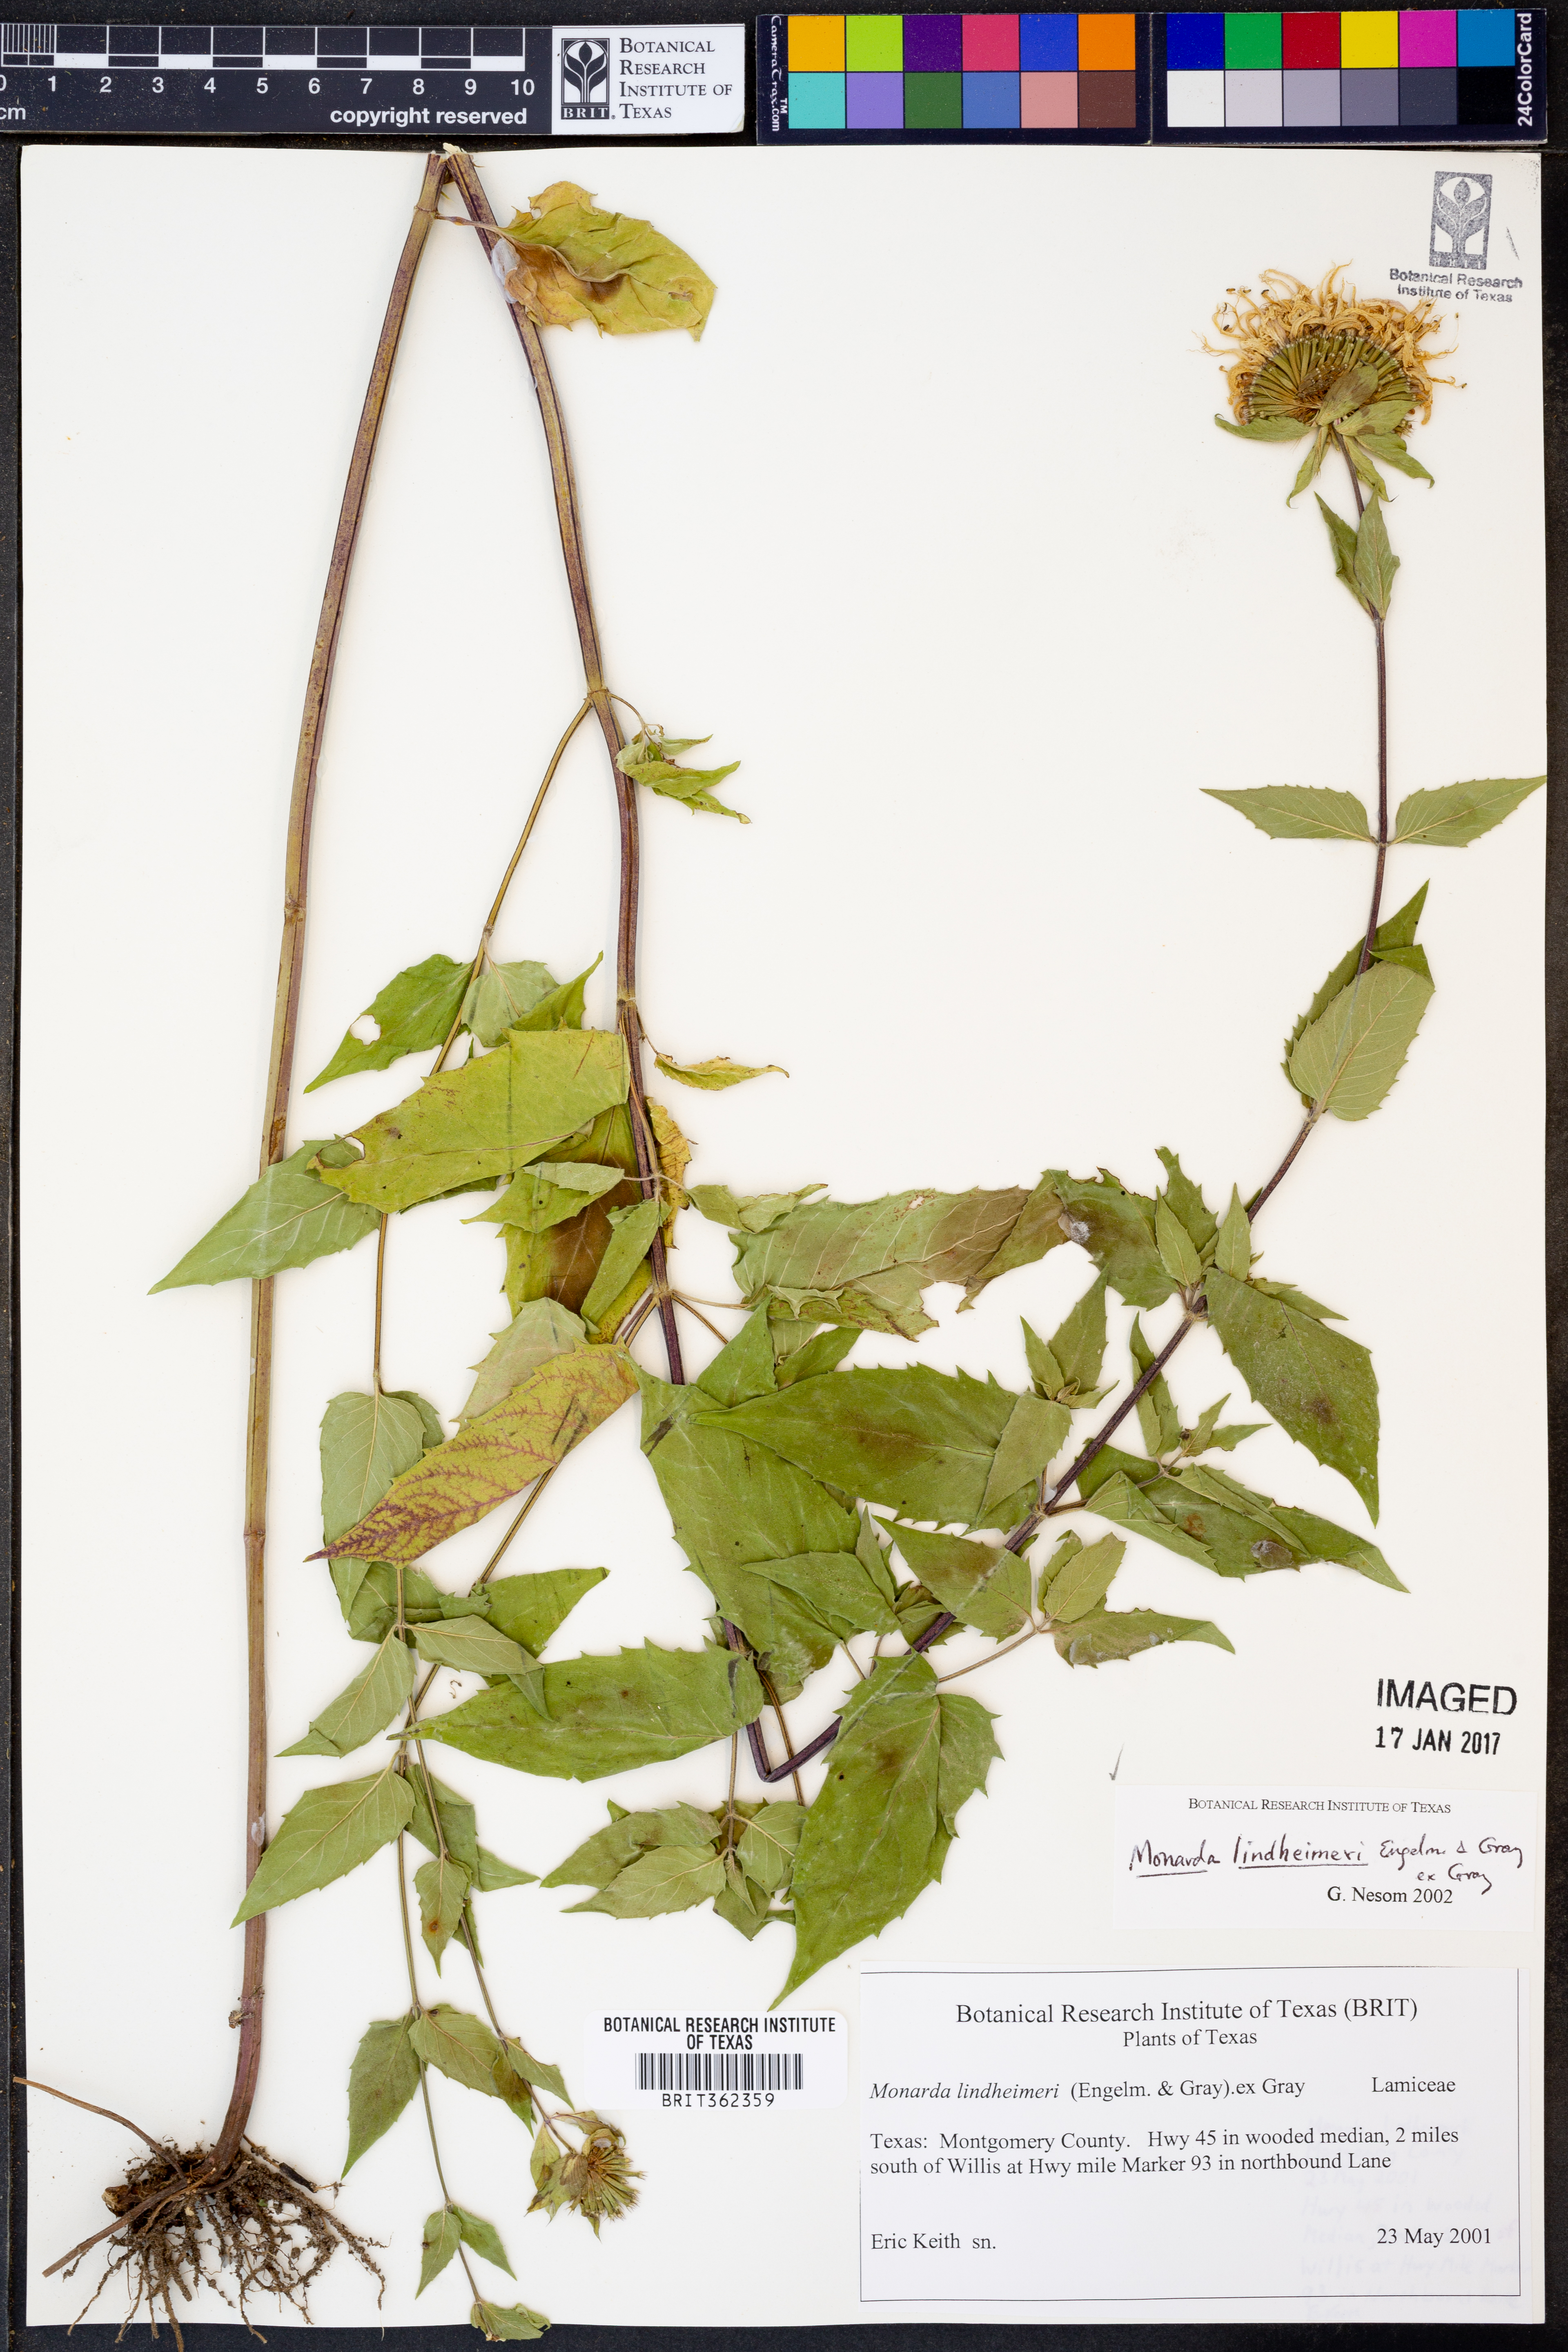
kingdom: Plantae
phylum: Tracheophyta
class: Magnoliopsida
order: Lamiales
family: Lamiaceae
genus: Monarda
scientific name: Monarda lindheimeri
